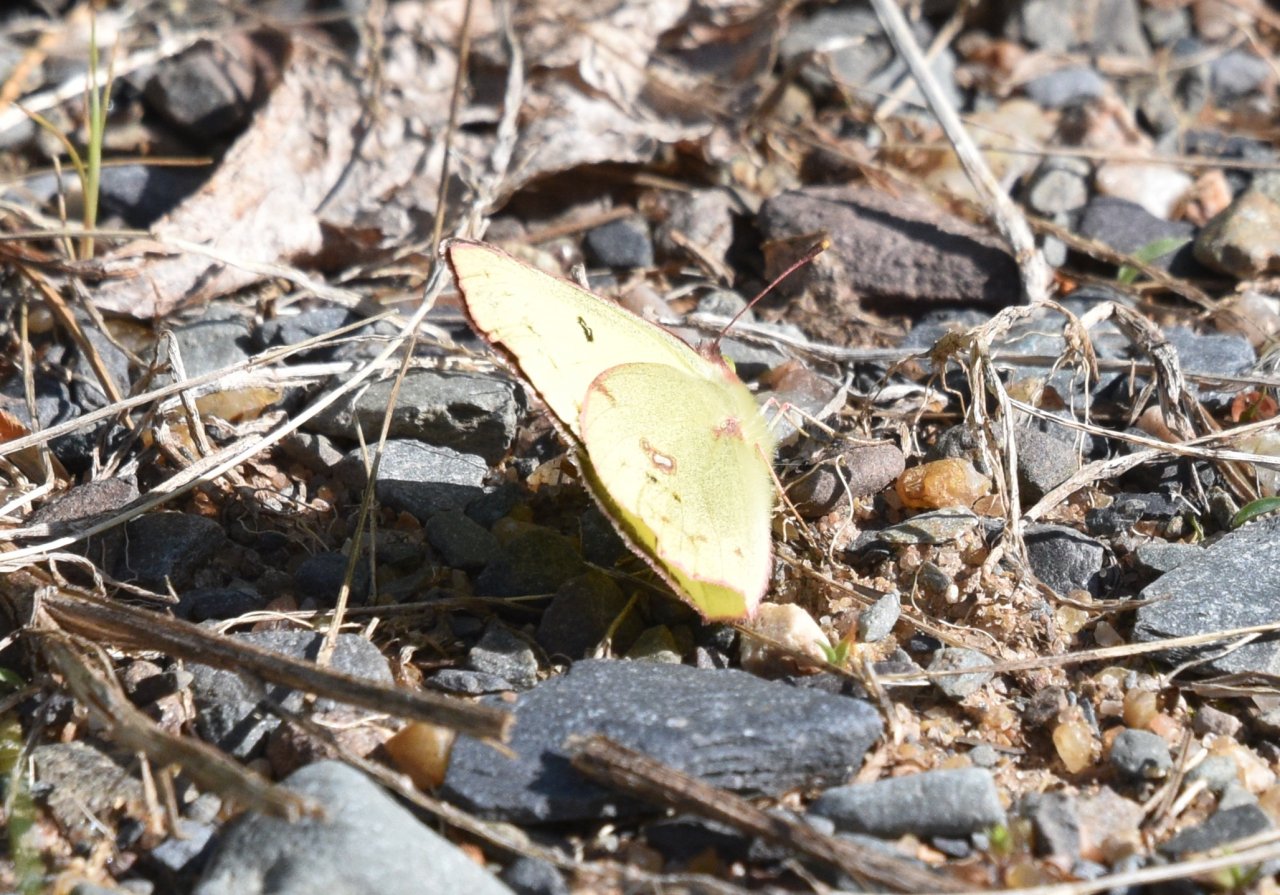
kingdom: Animalia
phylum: Arthropoda
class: Insecta
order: Lepidoptera
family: Pieridae
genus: Colias
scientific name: Colias philodice
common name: Clouded Sulphur
